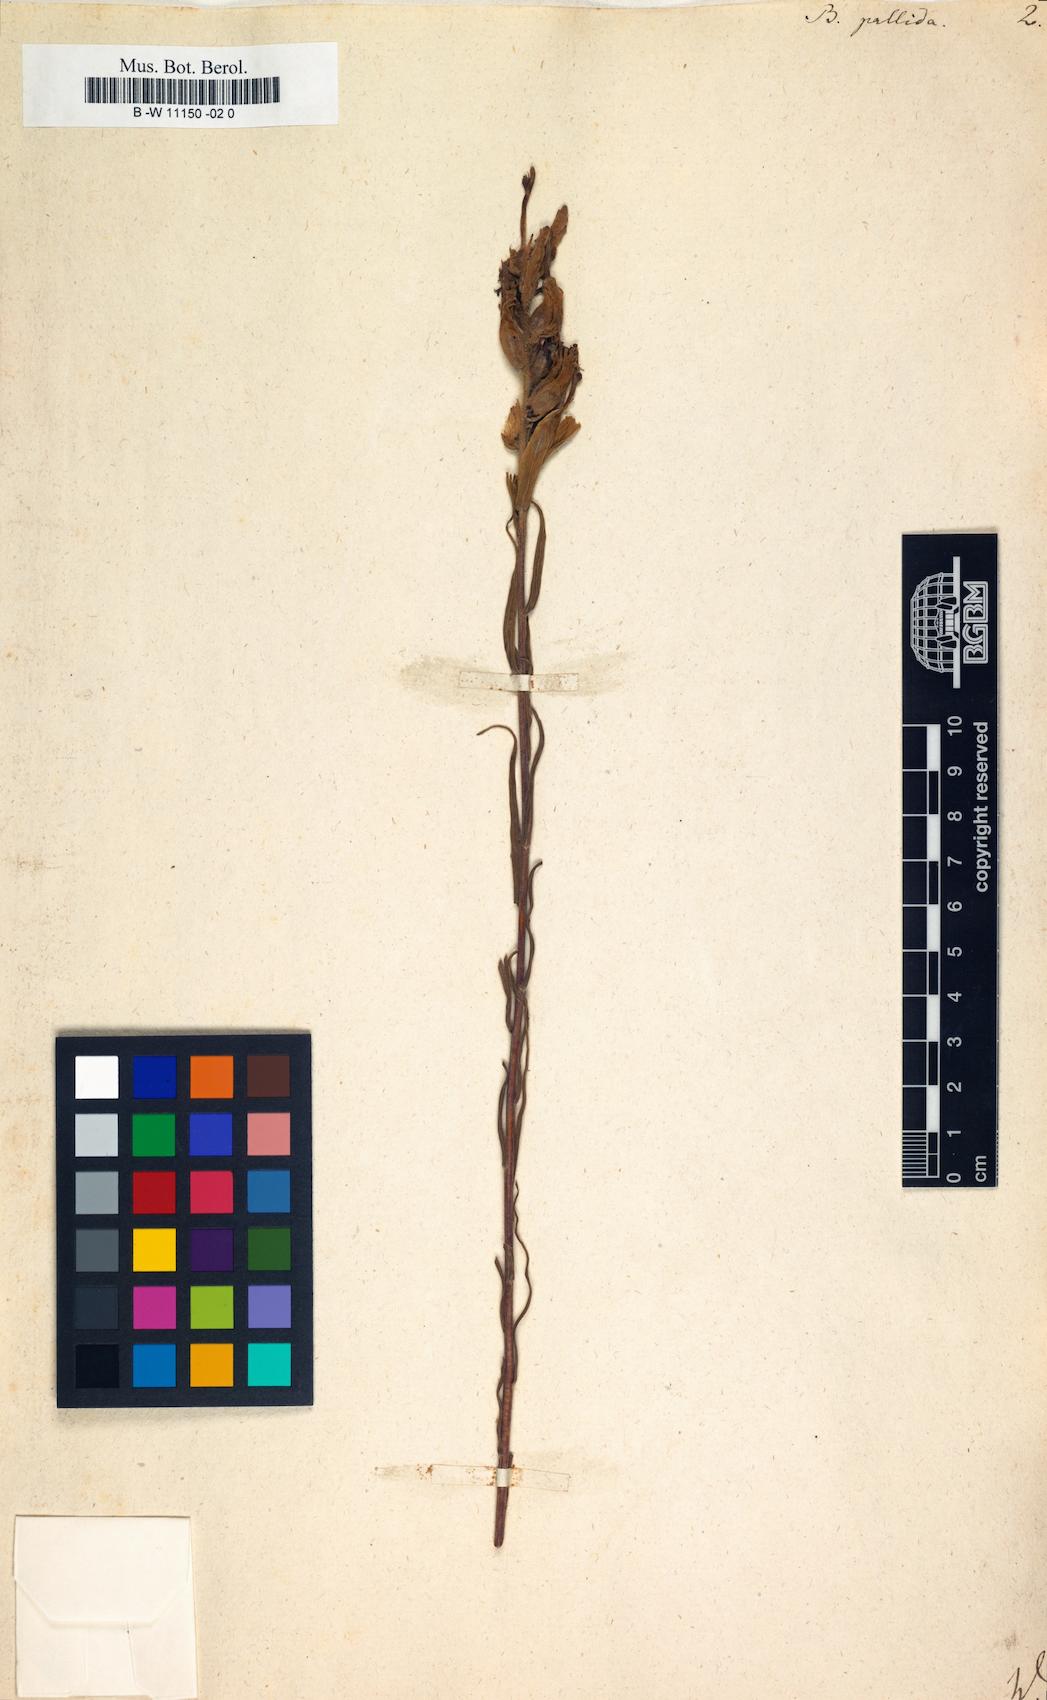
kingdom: Plantae
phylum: Tracheophyta
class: Magnoliopsida
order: Lamiales
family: Orobanchaceae
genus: Castilleja
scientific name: Castilleja pallida
